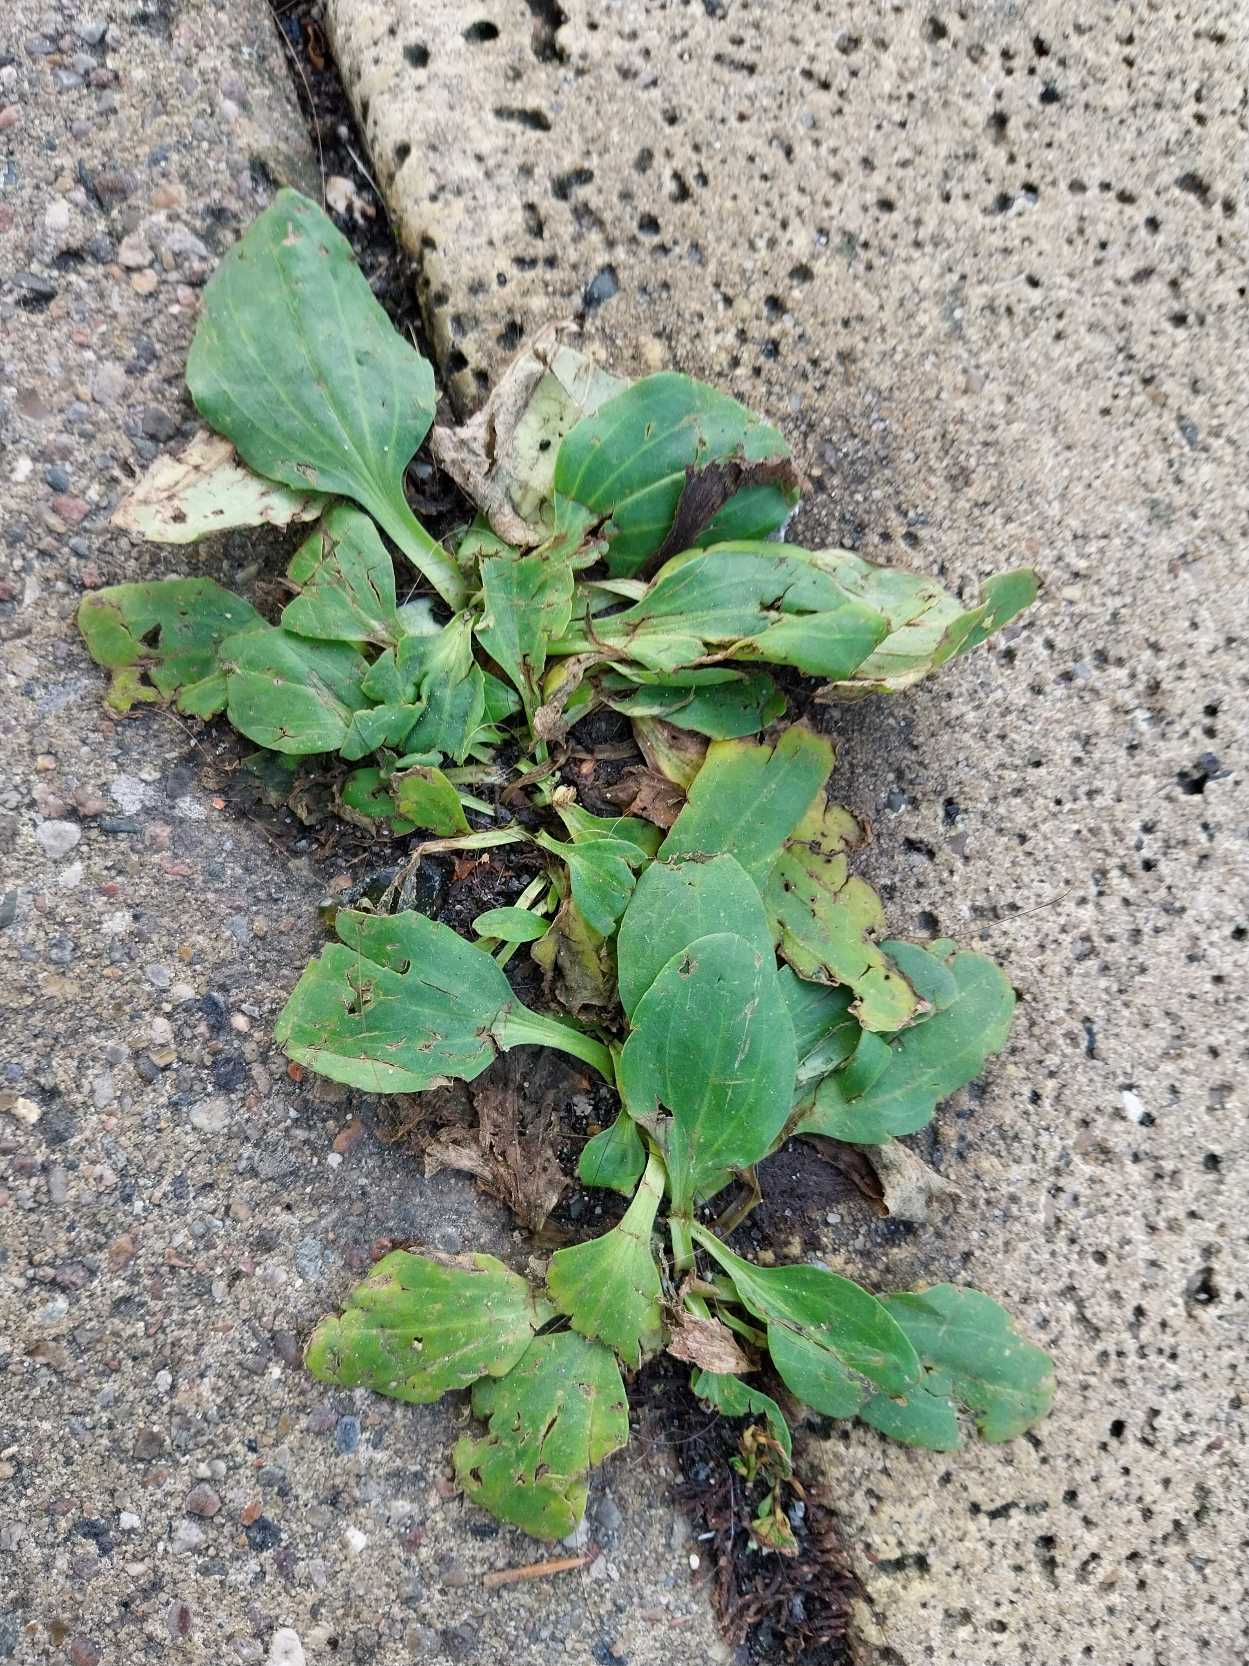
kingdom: Plantae
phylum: Tracheophyta
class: Magnoliopsida
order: Lamiales
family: Plantaginaceae
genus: Plantago
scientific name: Plantago major
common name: Glat vejbred
